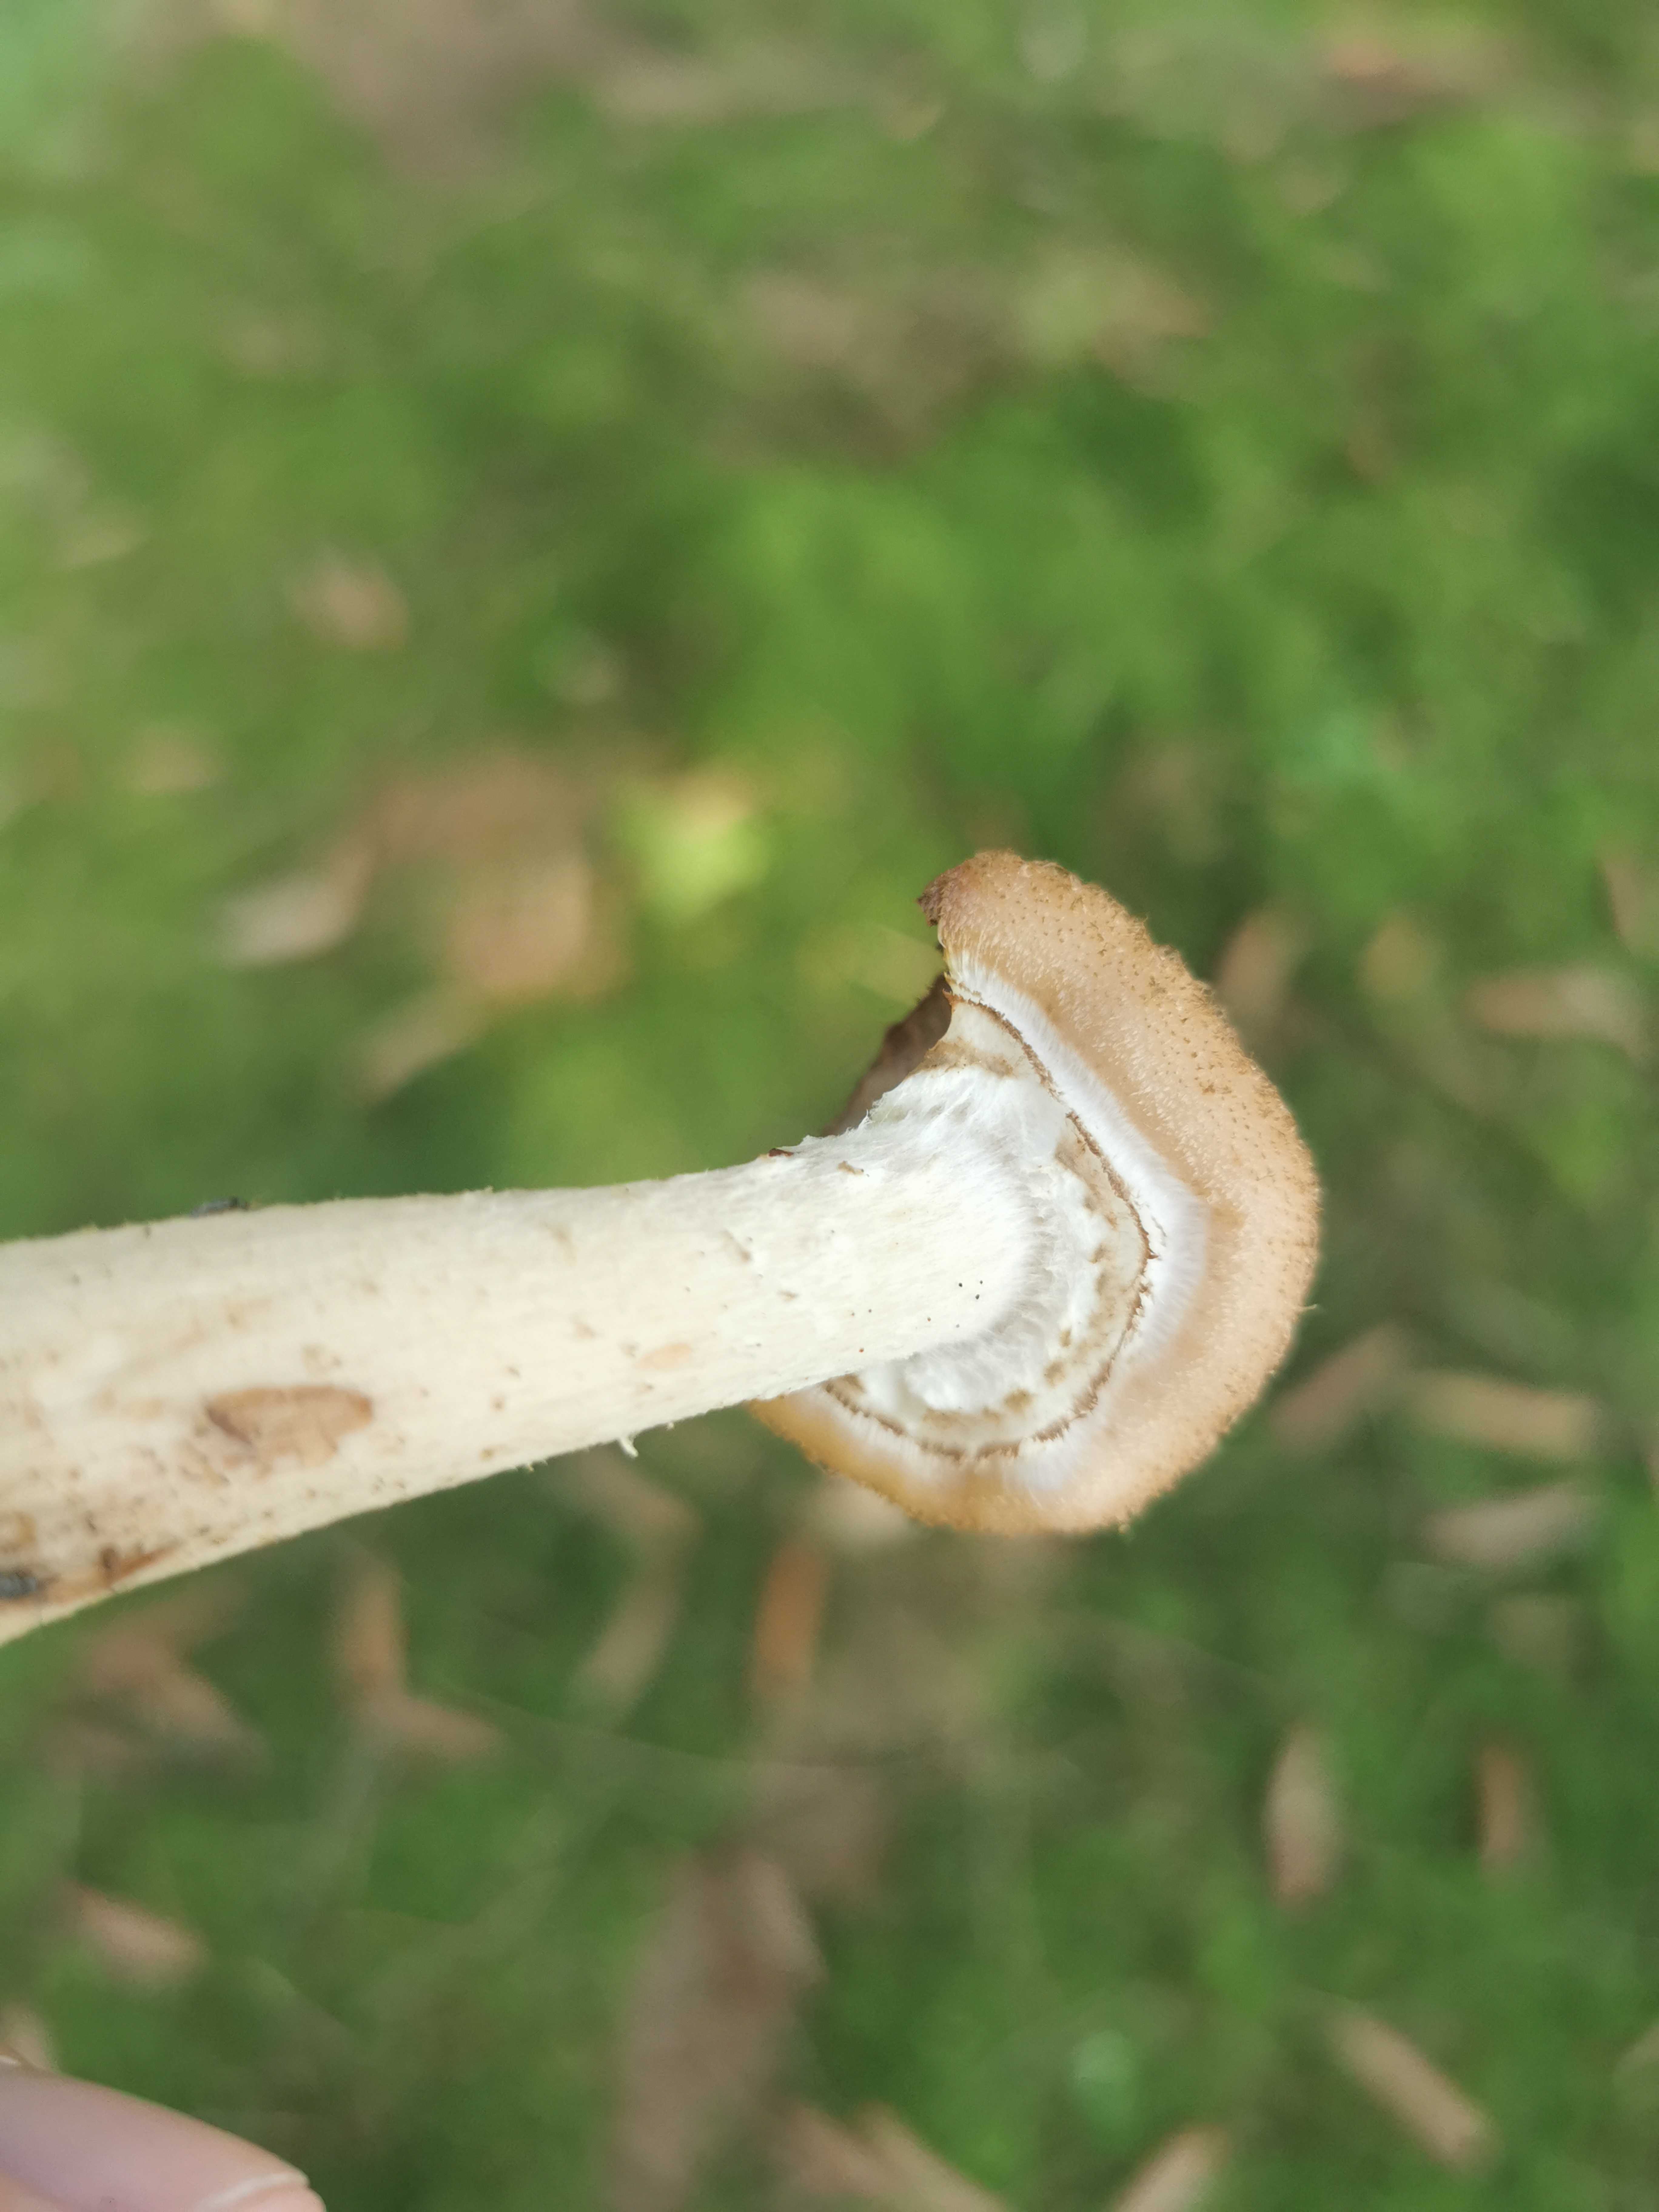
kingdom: Fungi
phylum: Basidiomycota
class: Agaricomycetes
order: Agaricales
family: Physalacriaceae
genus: Armillaria
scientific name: Armillaria ostoyae
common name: mørk honningsvamp
